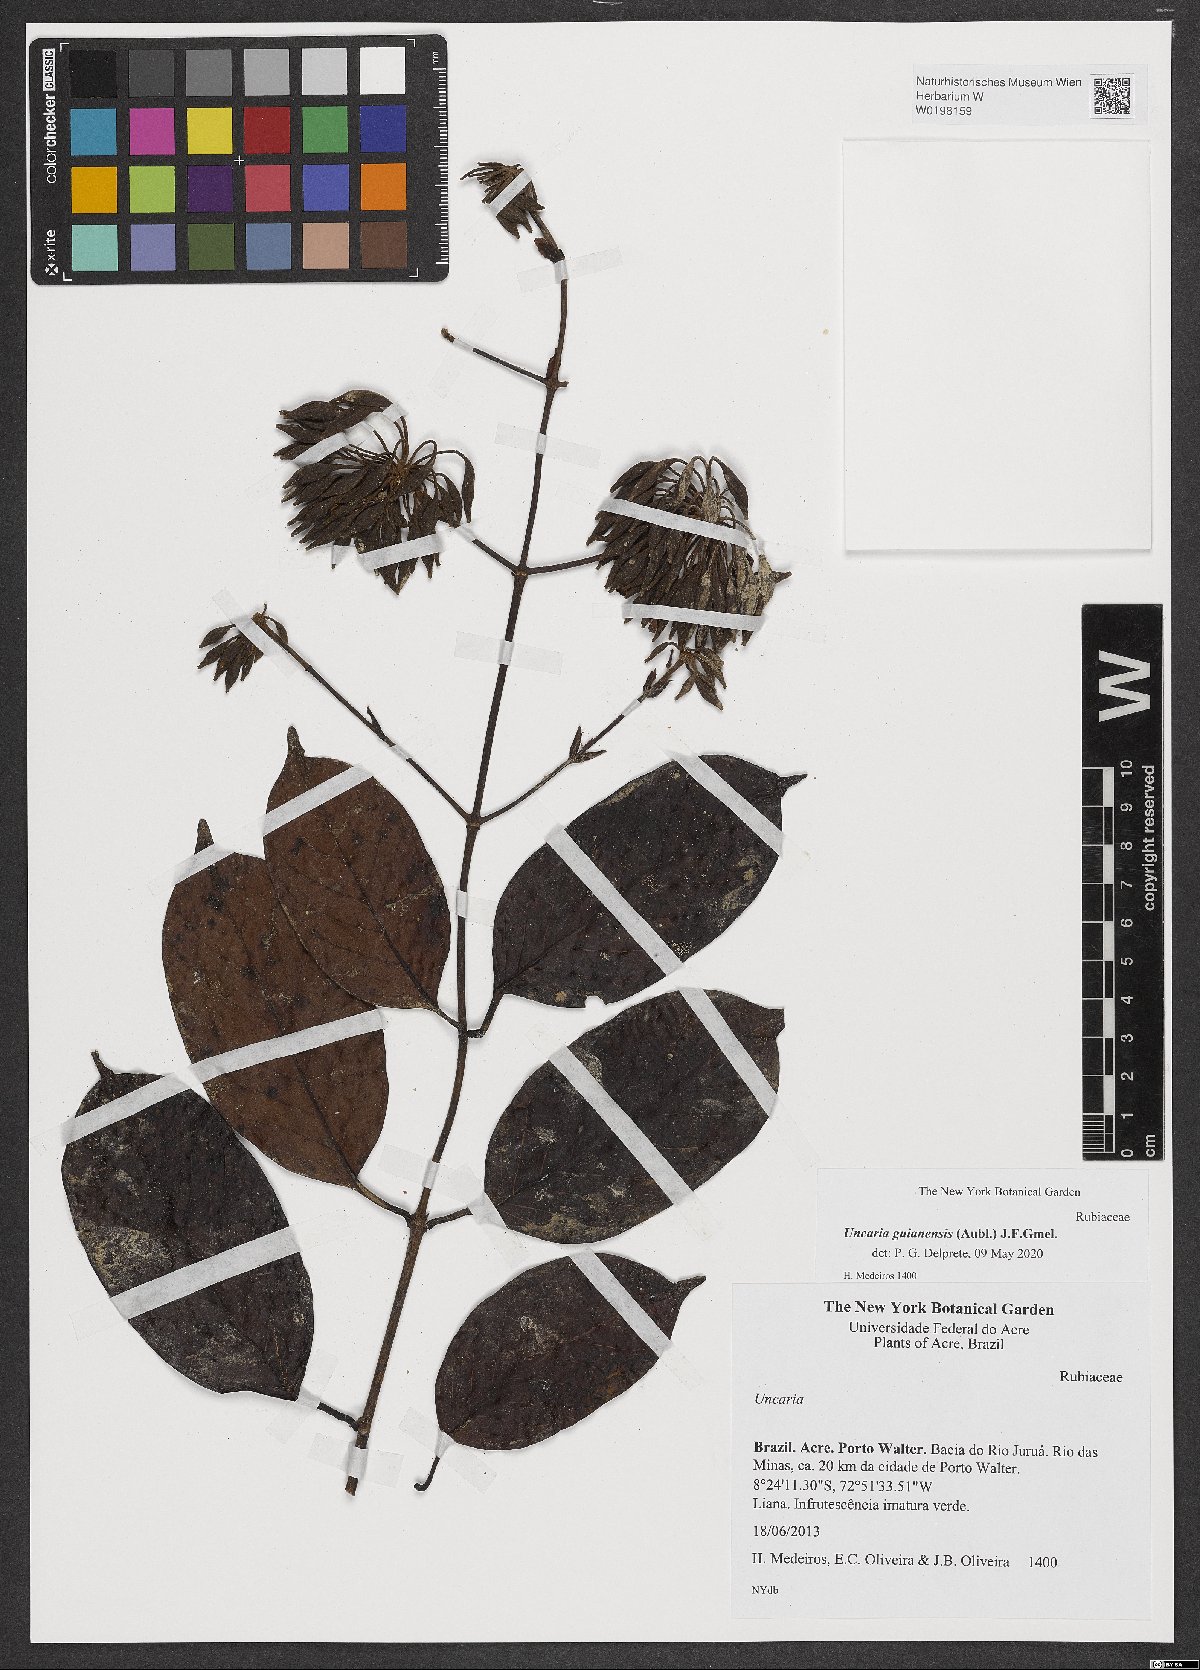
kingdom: Plantae
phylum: Tracheophyta
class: Magnoliopsida
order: Gentianales
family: Rubiaceae
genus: Uncaria
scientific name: Uncaria guianensis
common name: Cat's-claw
